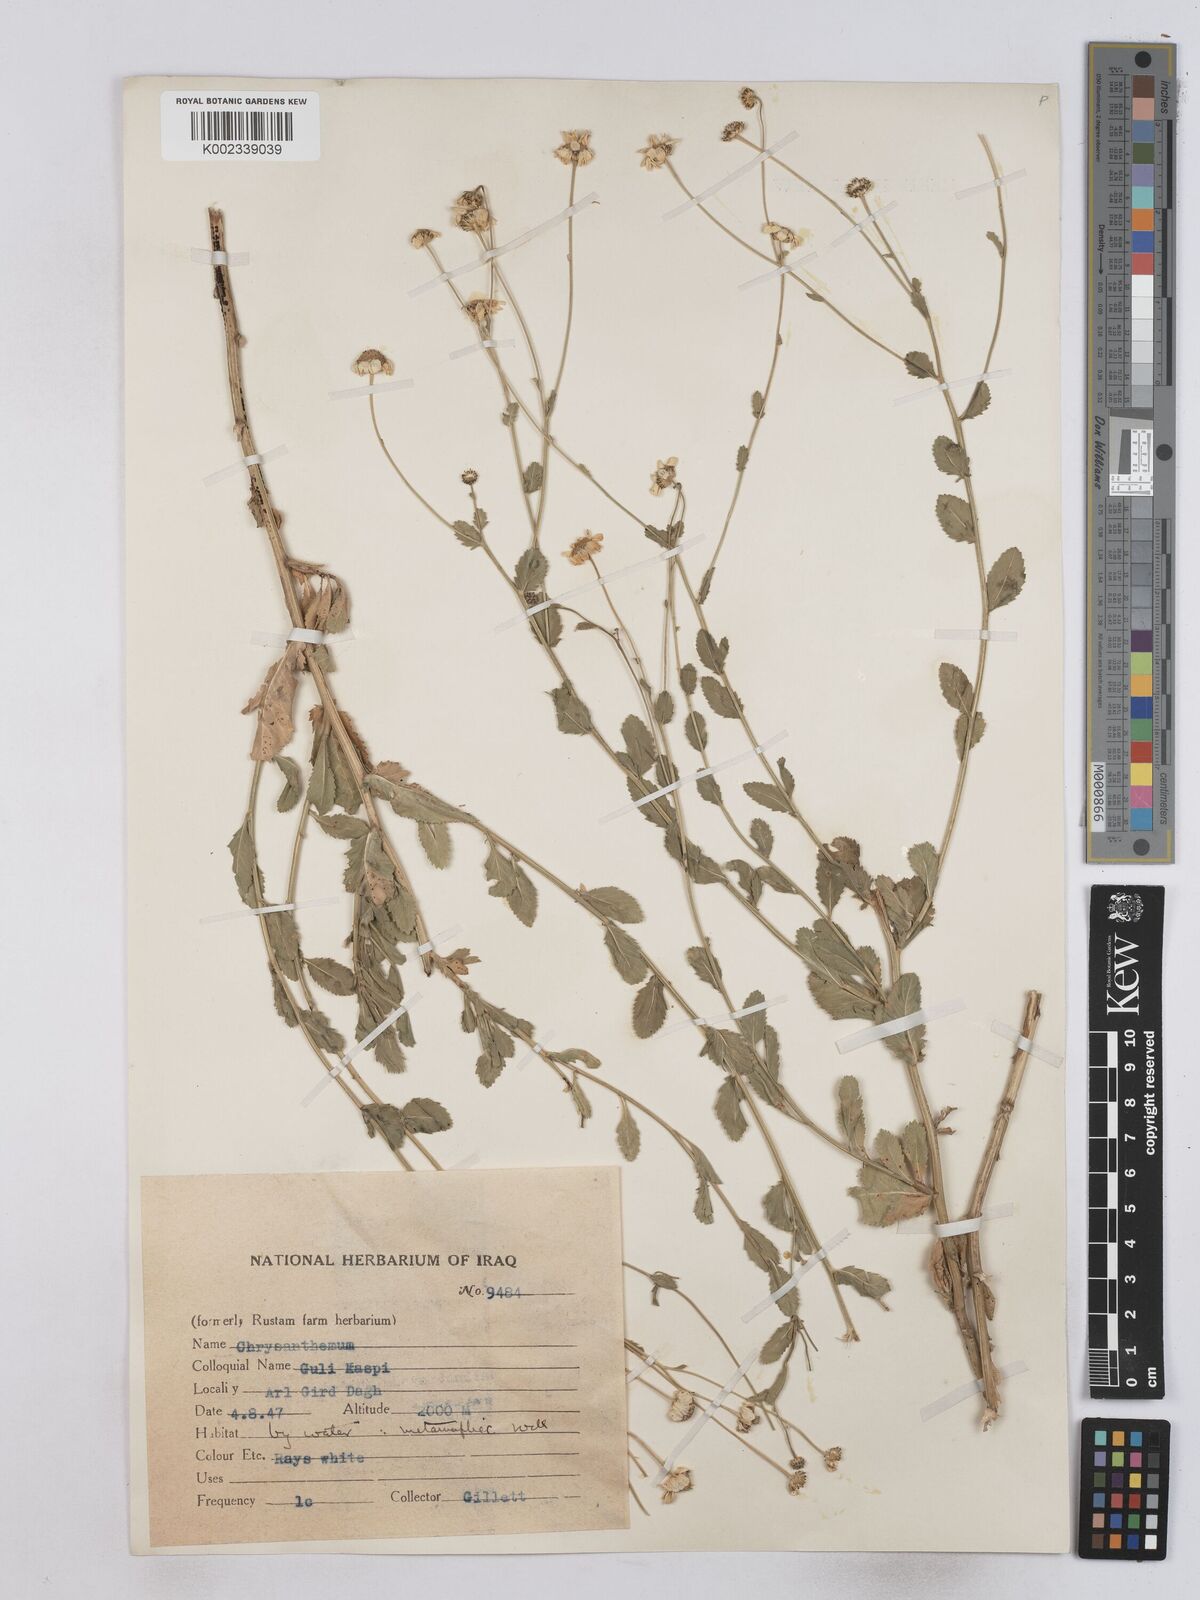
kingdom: Plantae
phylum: Tracheophyta
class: Magnoliopsida
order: Asterales
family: Asteraceae
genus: Tanacetum
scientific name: Tanacetum balsamitoides
